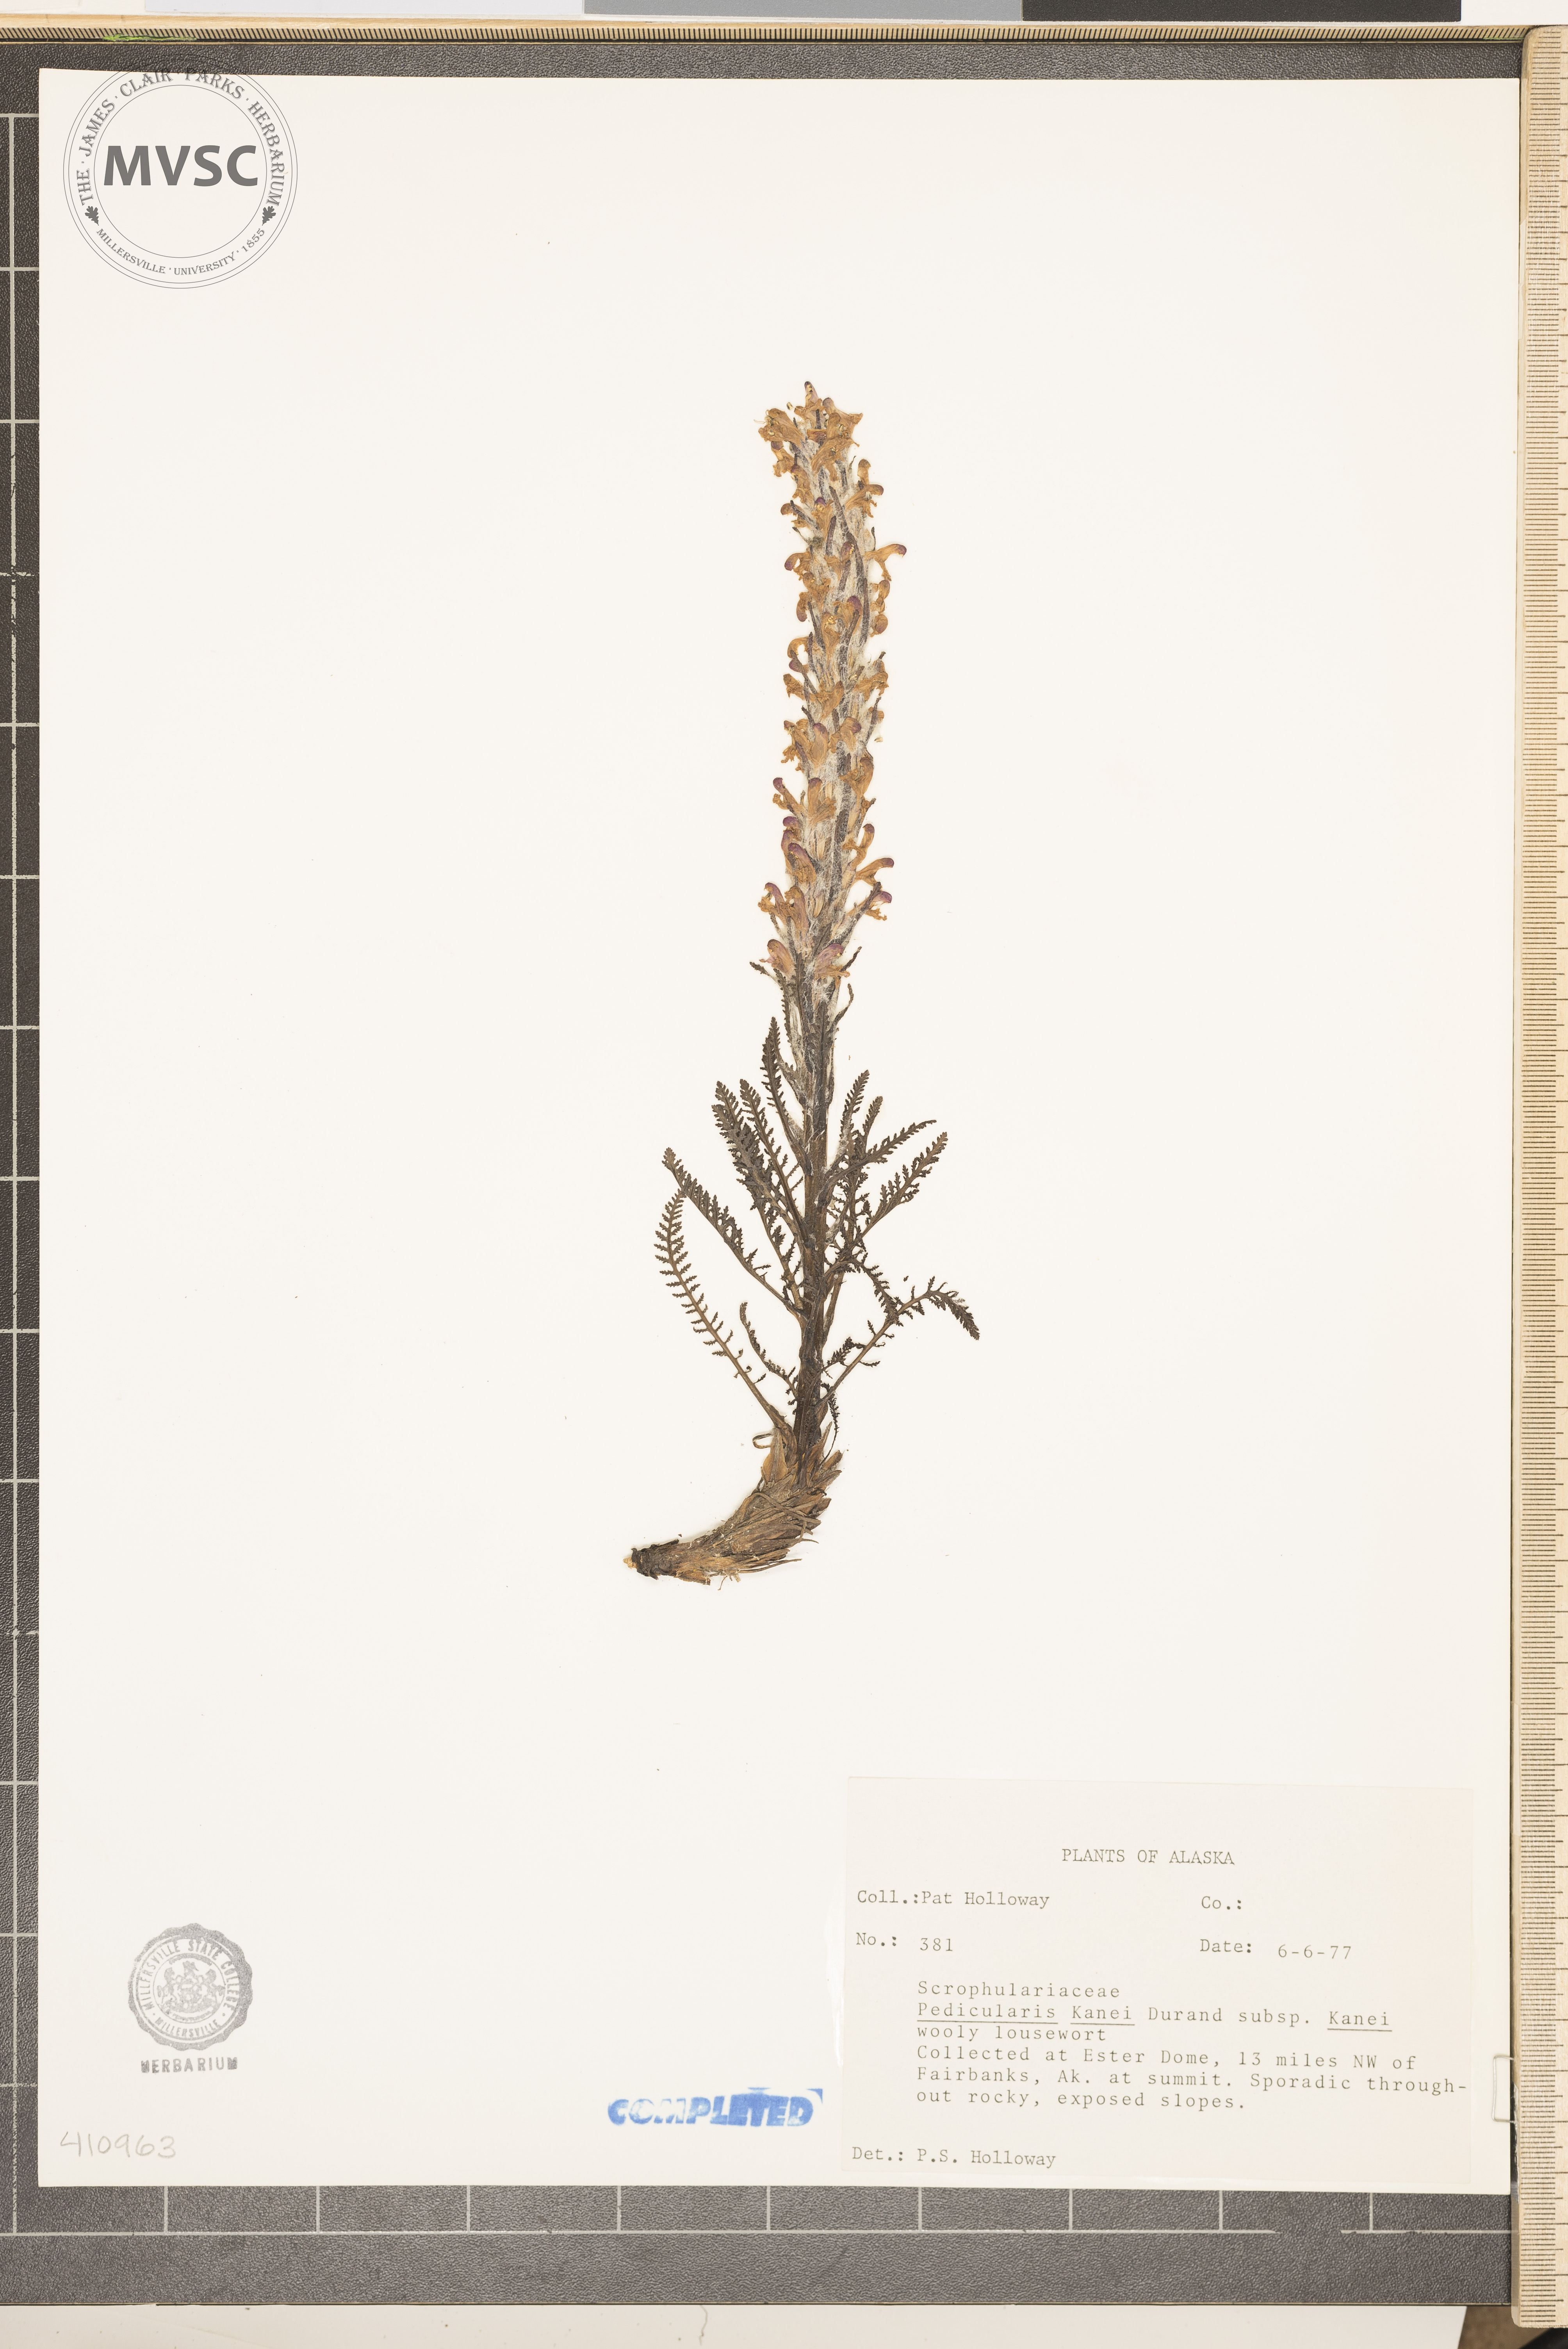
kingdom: Plantae
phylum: Tracheophyta
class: Magnoliopsida
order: Lamiales
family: Orobanchaceae
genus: Pedicularis
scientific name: Pedicularis lanata
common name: Woolly lousewort
